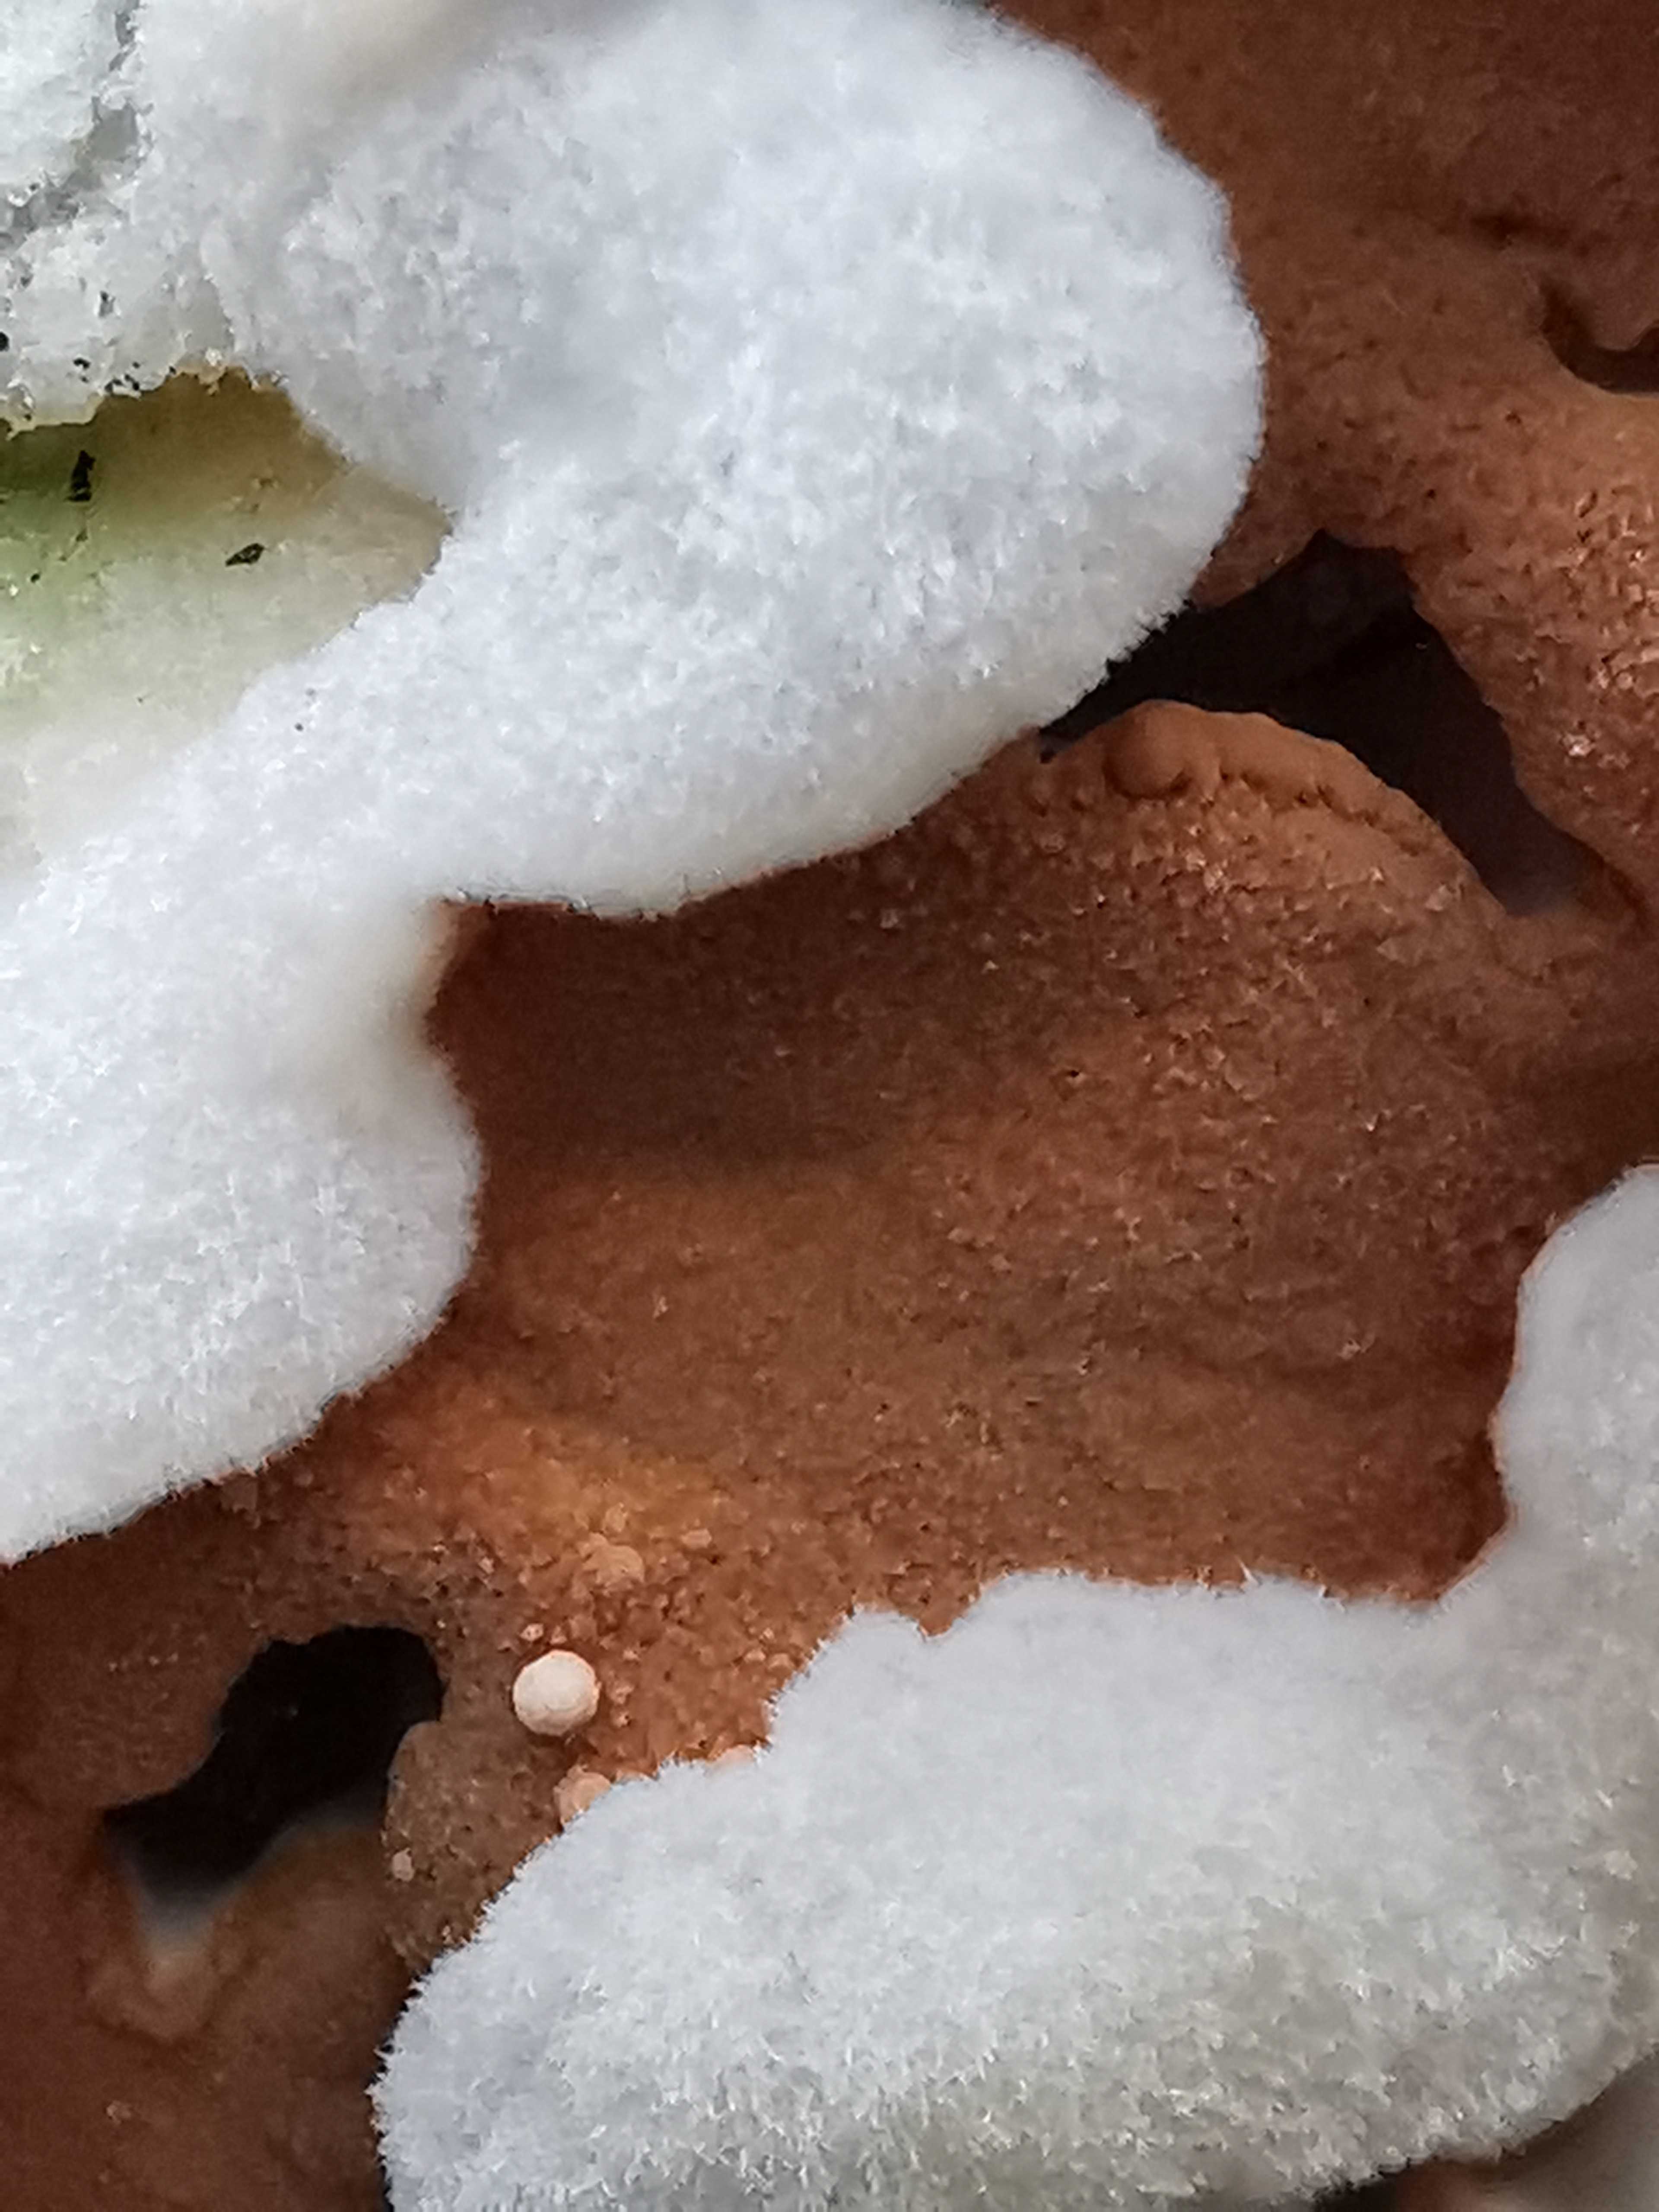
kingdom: Fungi
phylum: Basidiomycota
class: Agaricomycetes
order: Polyporales
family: Irpicaceae
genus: Meruliopsis
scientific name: Meruliopsis taxicola
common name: purpurbrun foldporesvamp
